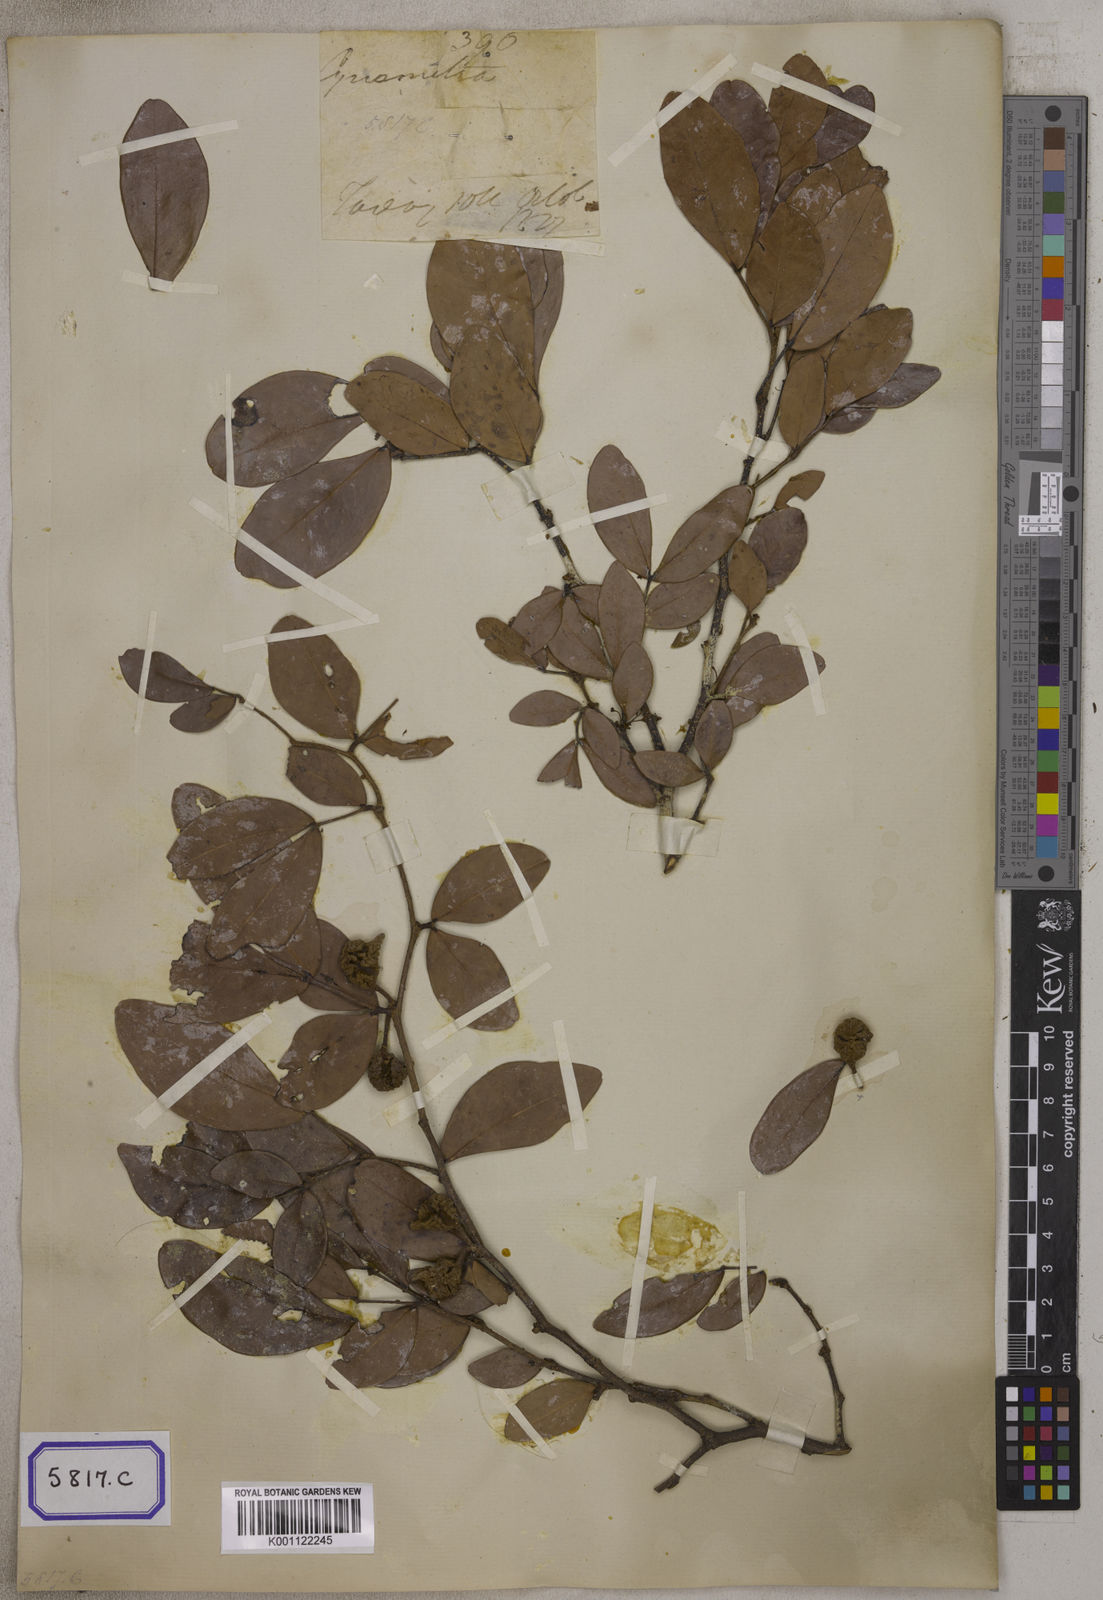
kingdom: Plantae
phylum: Tracheophyta
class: Magnoliopsida
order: Fabales
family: Fabaceae
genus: Cynometra
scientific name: Cynometra
